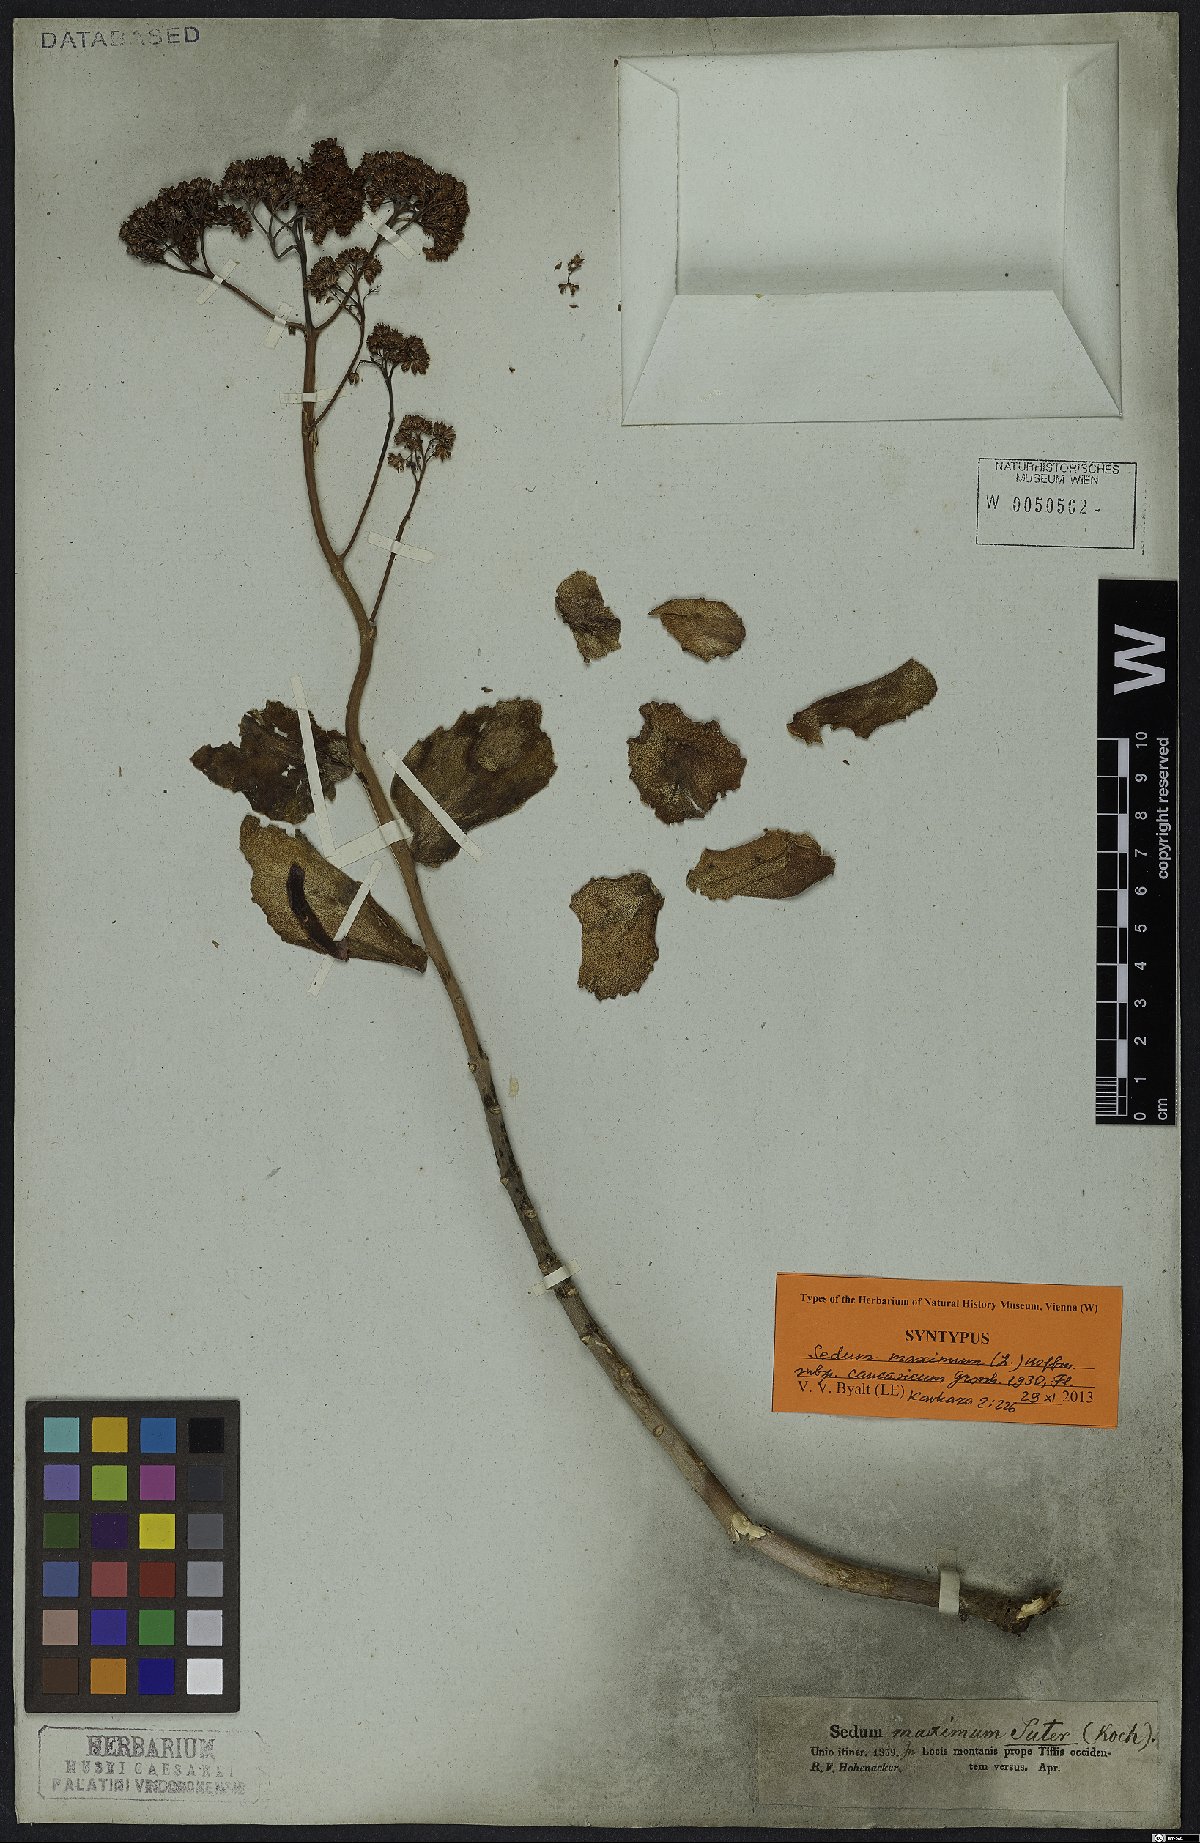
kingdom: Plantae
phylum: Tracheophyta
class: Magnoliopsida
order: Saxifragales
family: Crassulaceae
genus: Hylotelephium
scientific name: Hylotelephium maximum
